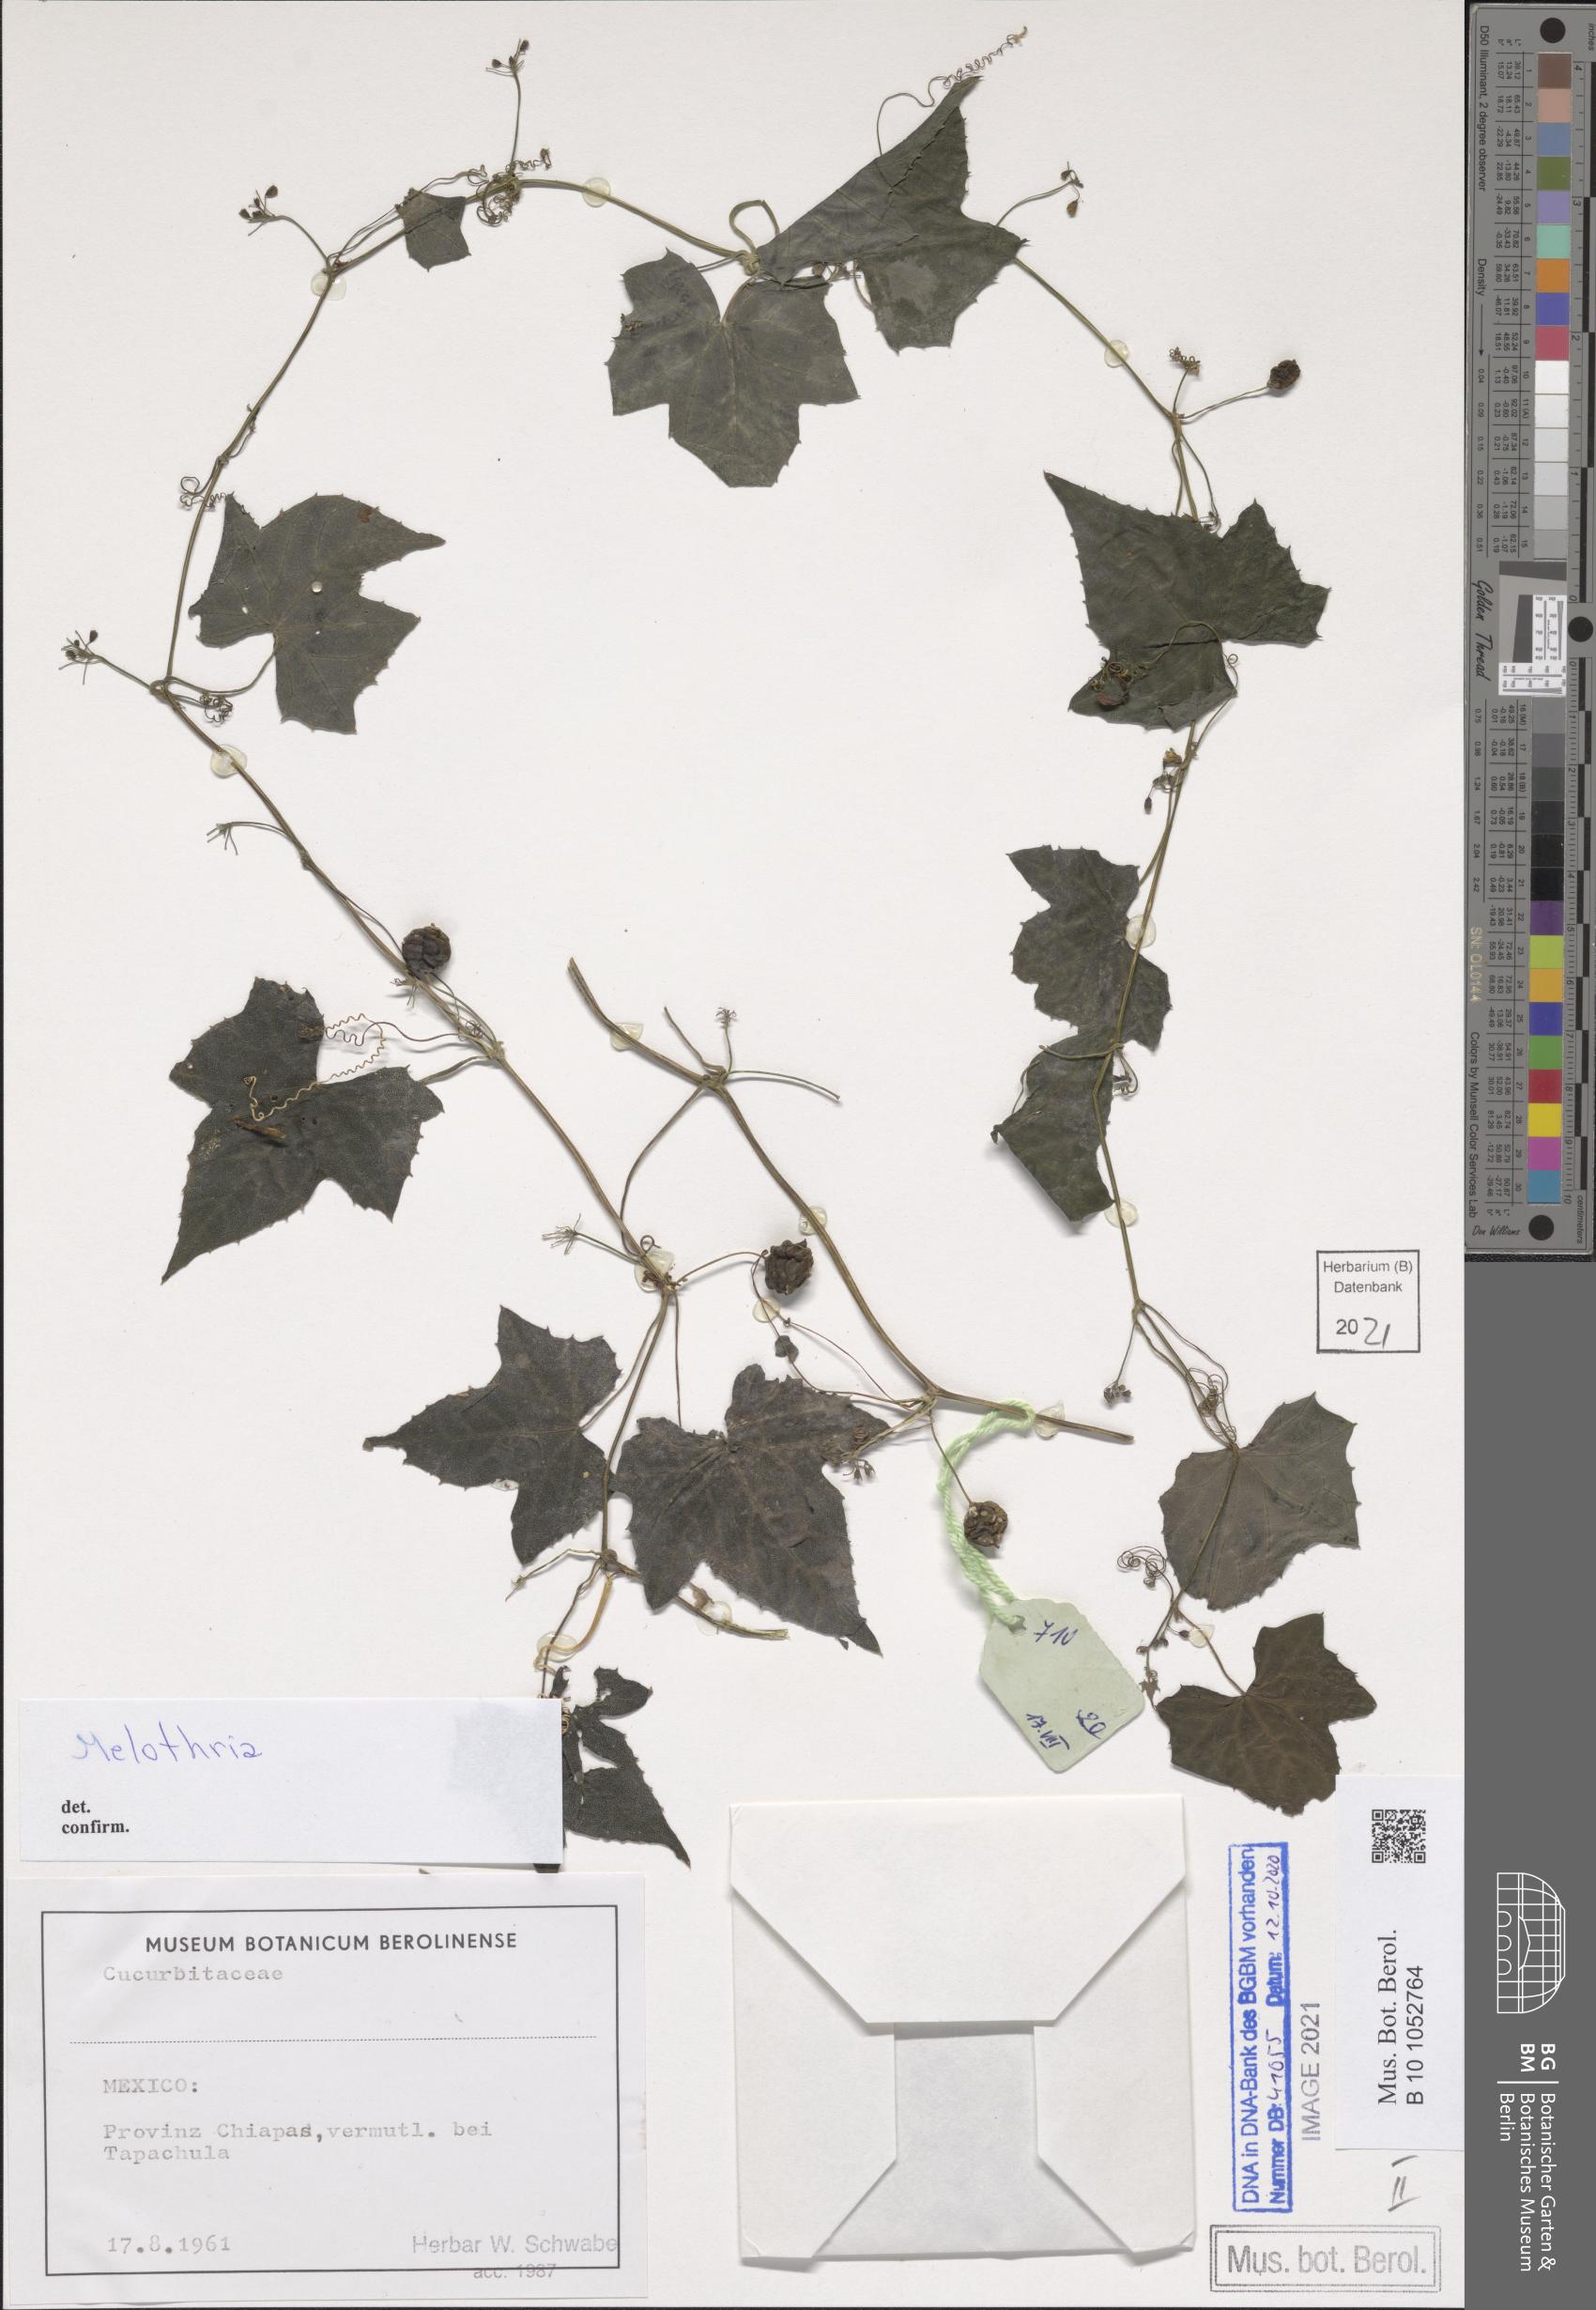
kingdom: Plantae
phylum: Tracheophyta
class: Magnoliopsida
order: Cucurbitales
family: Cucurbitaceae
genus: Melothria
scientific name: Melothria
